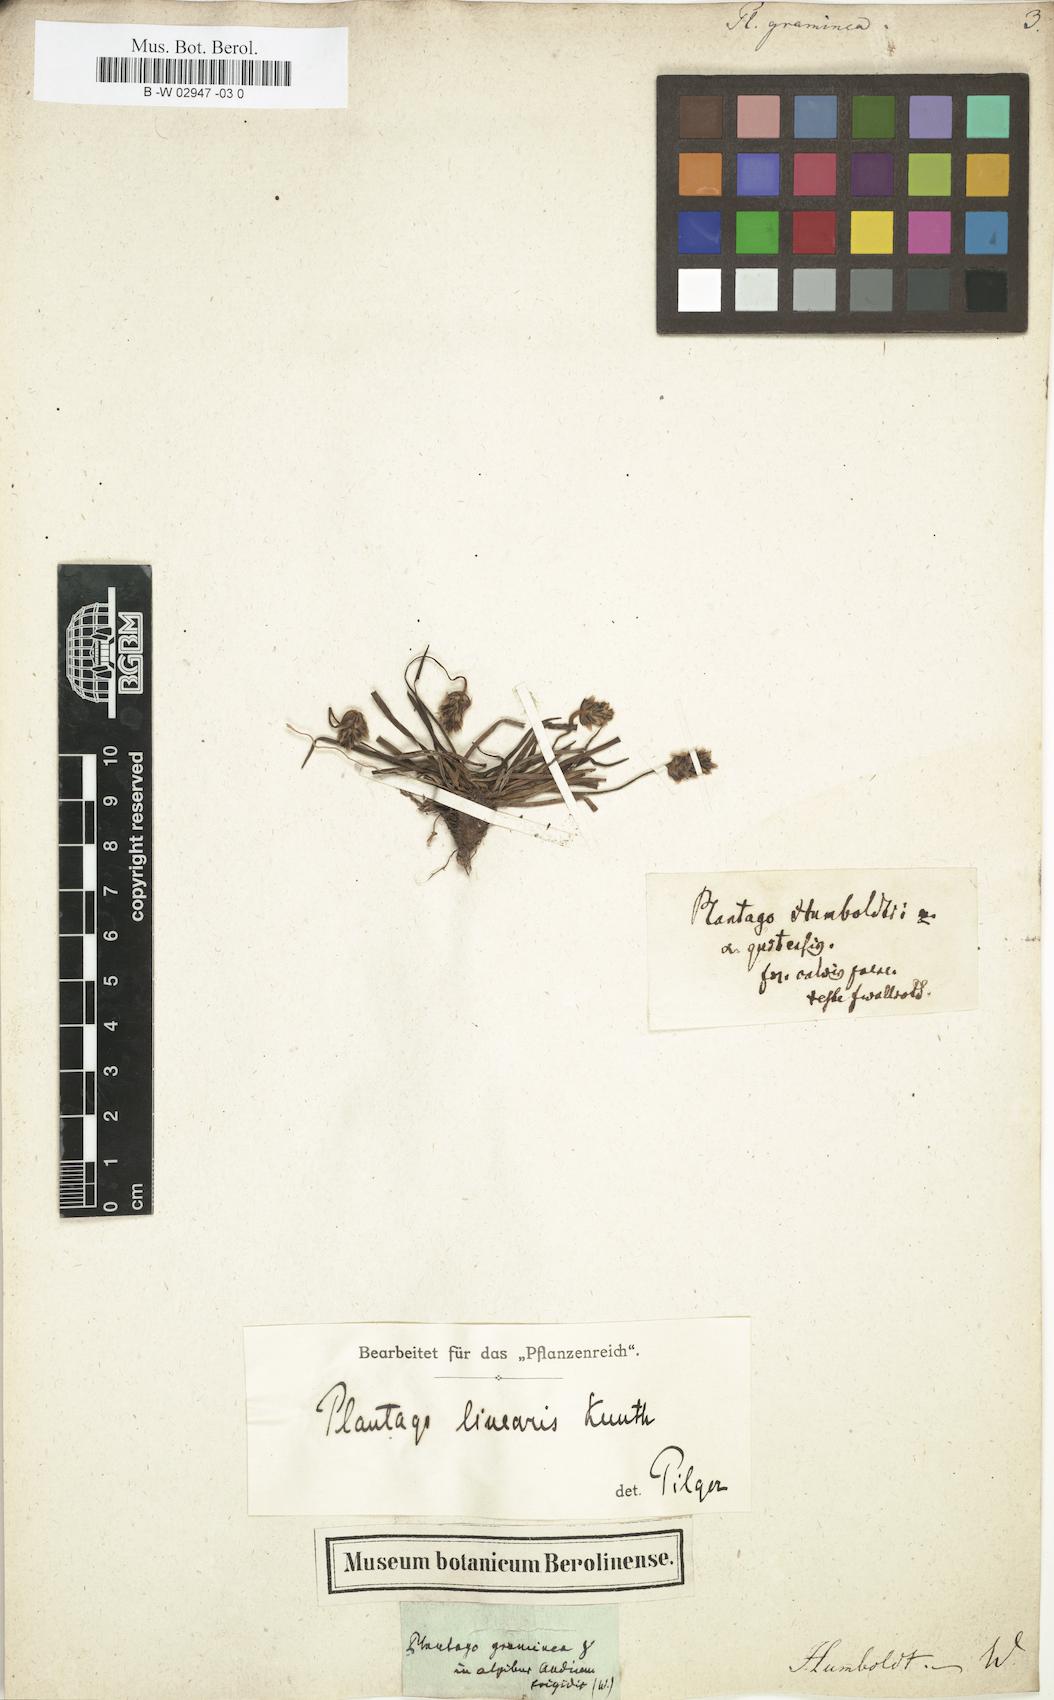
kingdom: Plantae
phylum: Tracheophyta
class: Magnoliopsida
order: Lamiales
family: Plantaginaceae
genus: Plantago
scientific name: Plantago
